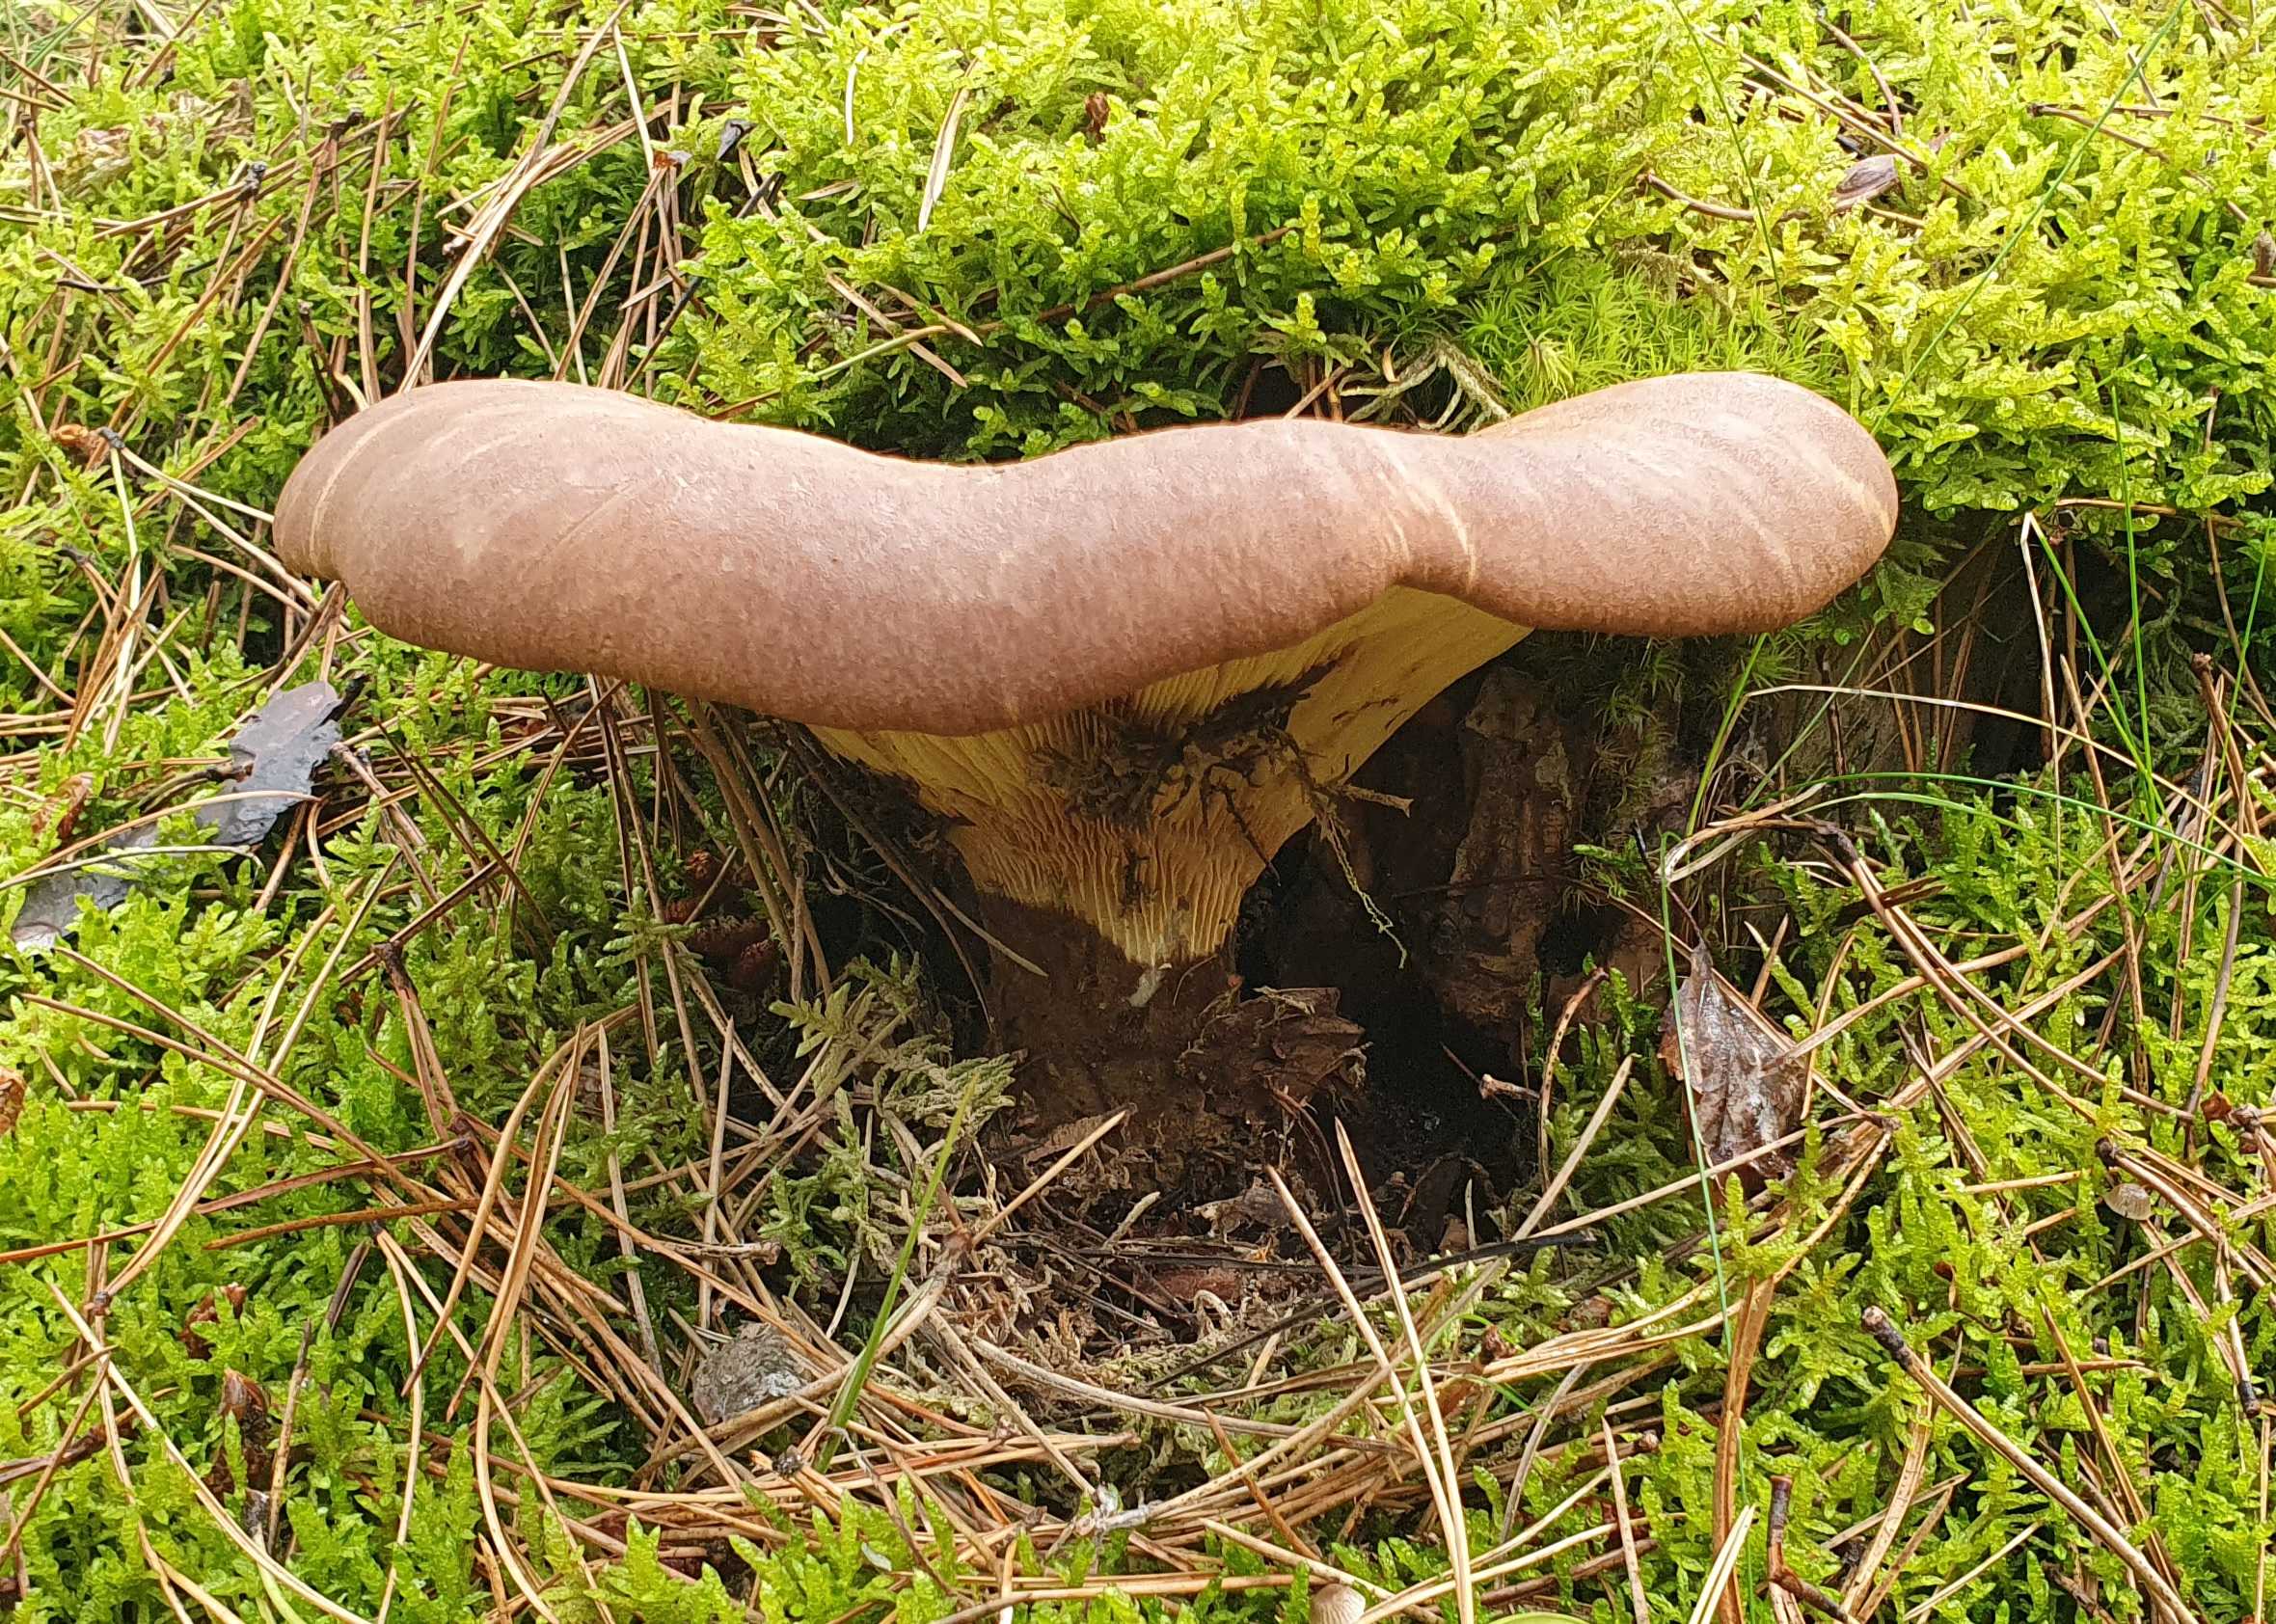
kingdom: Fungi
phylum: Basidiomycota
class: Agaricomycetes
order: Boletales
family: Tapinellaceae
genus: Tapinella
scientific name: Tapinella atrotomentosa
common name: sortfiltet viftesvamp
